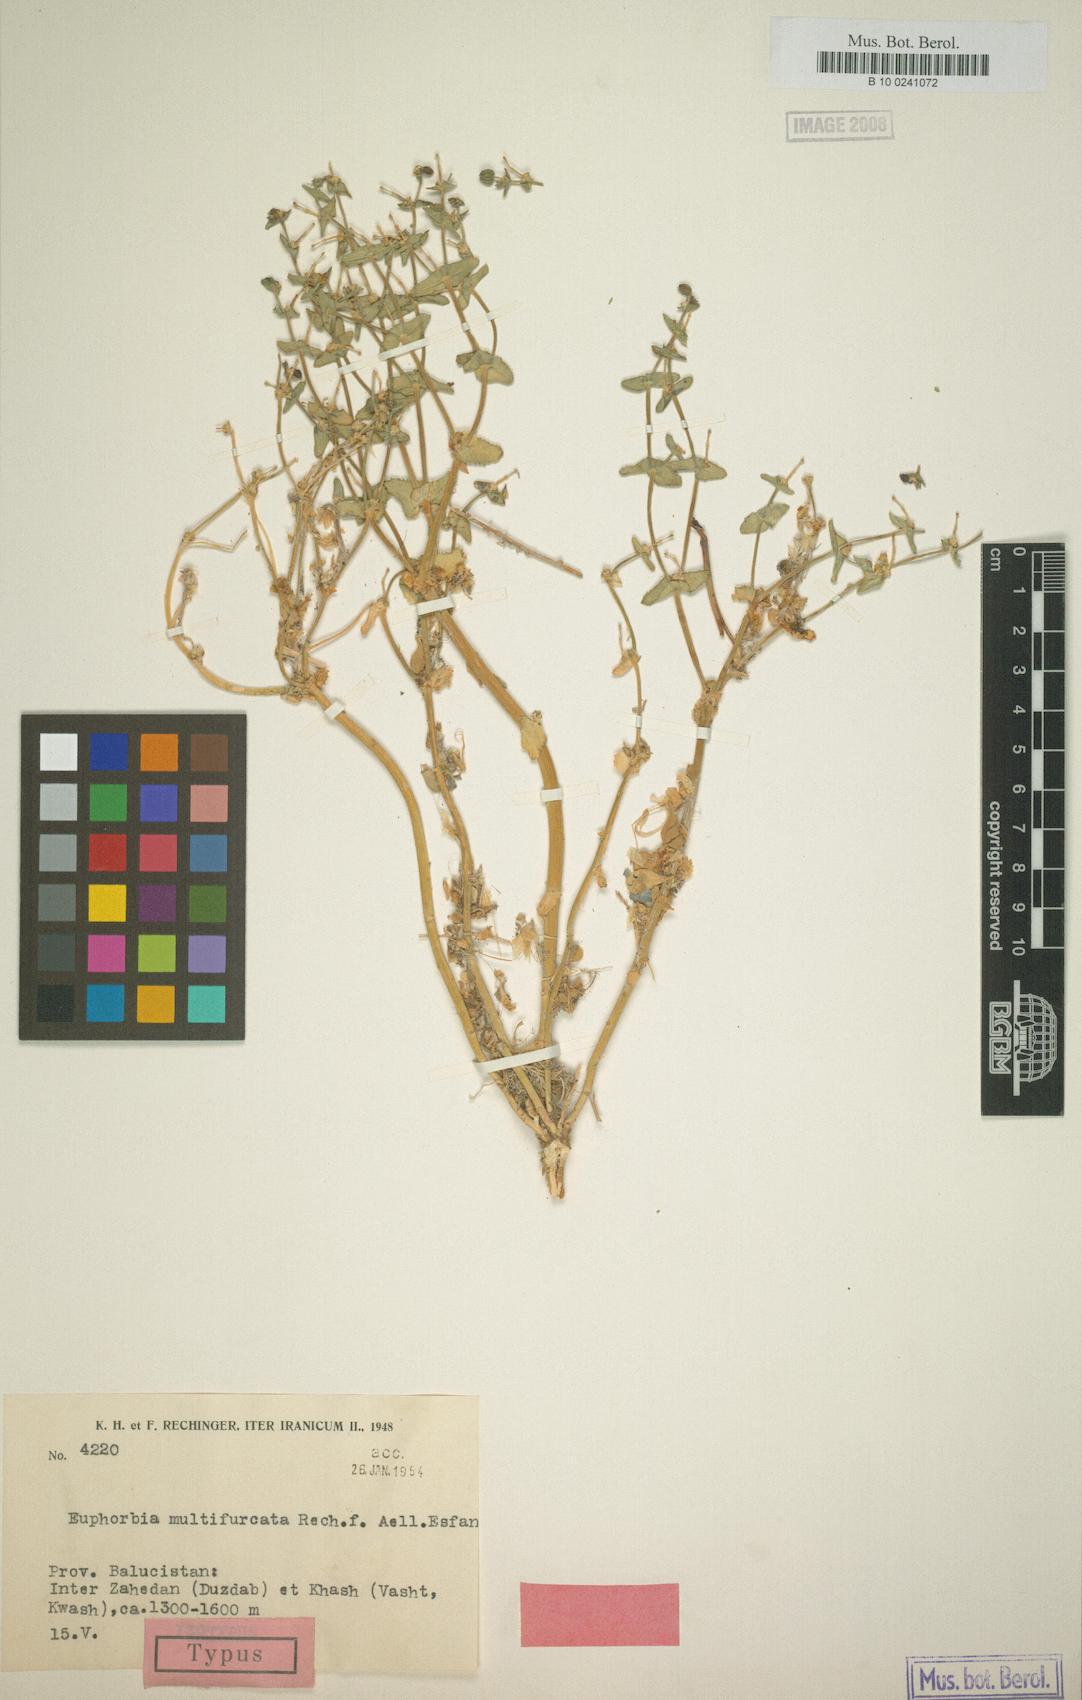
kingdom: Plantae
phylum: Tracheophyta
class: Magnoliopsida
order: Malpighiales
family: Euphorbiaceae
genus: Euphorbia
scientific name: Euphorbia caeladenia
